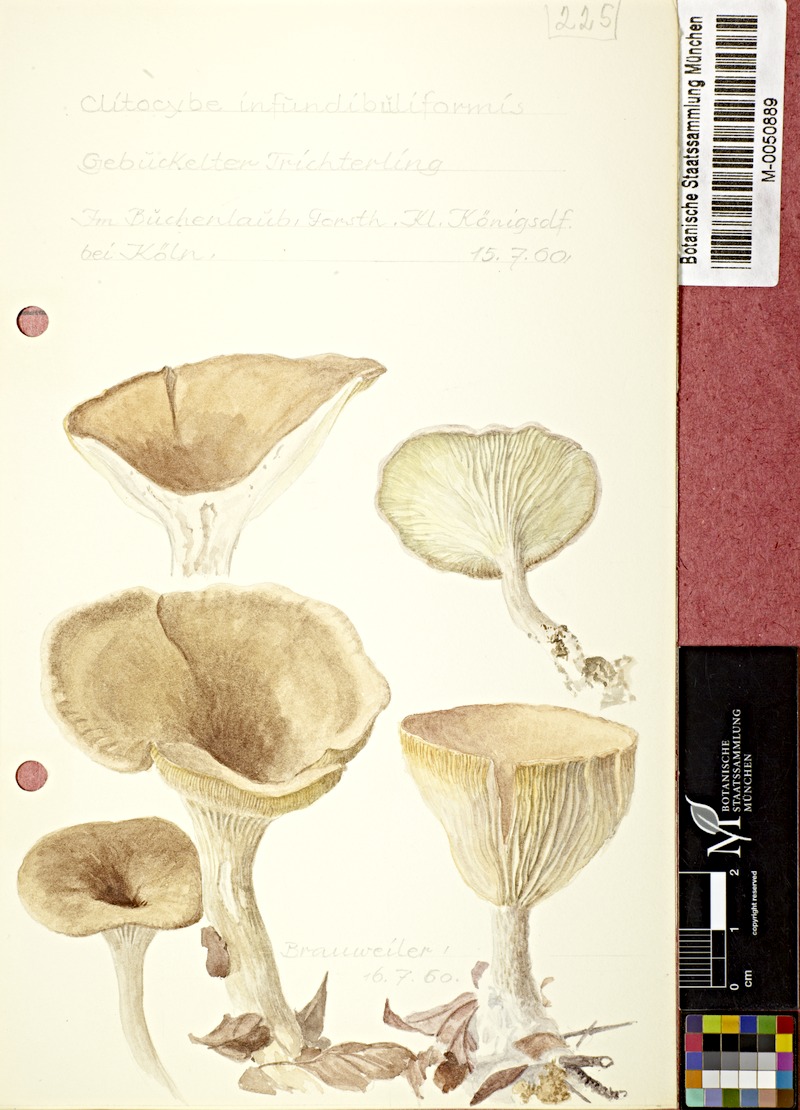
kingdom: Fungi
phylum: Basidiomycota
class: Agaricomycetes
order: Agaricales
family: Tricholomataceae
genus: Infundibulicybe
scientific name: Infundibulicybe gibba
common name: Common funnel
